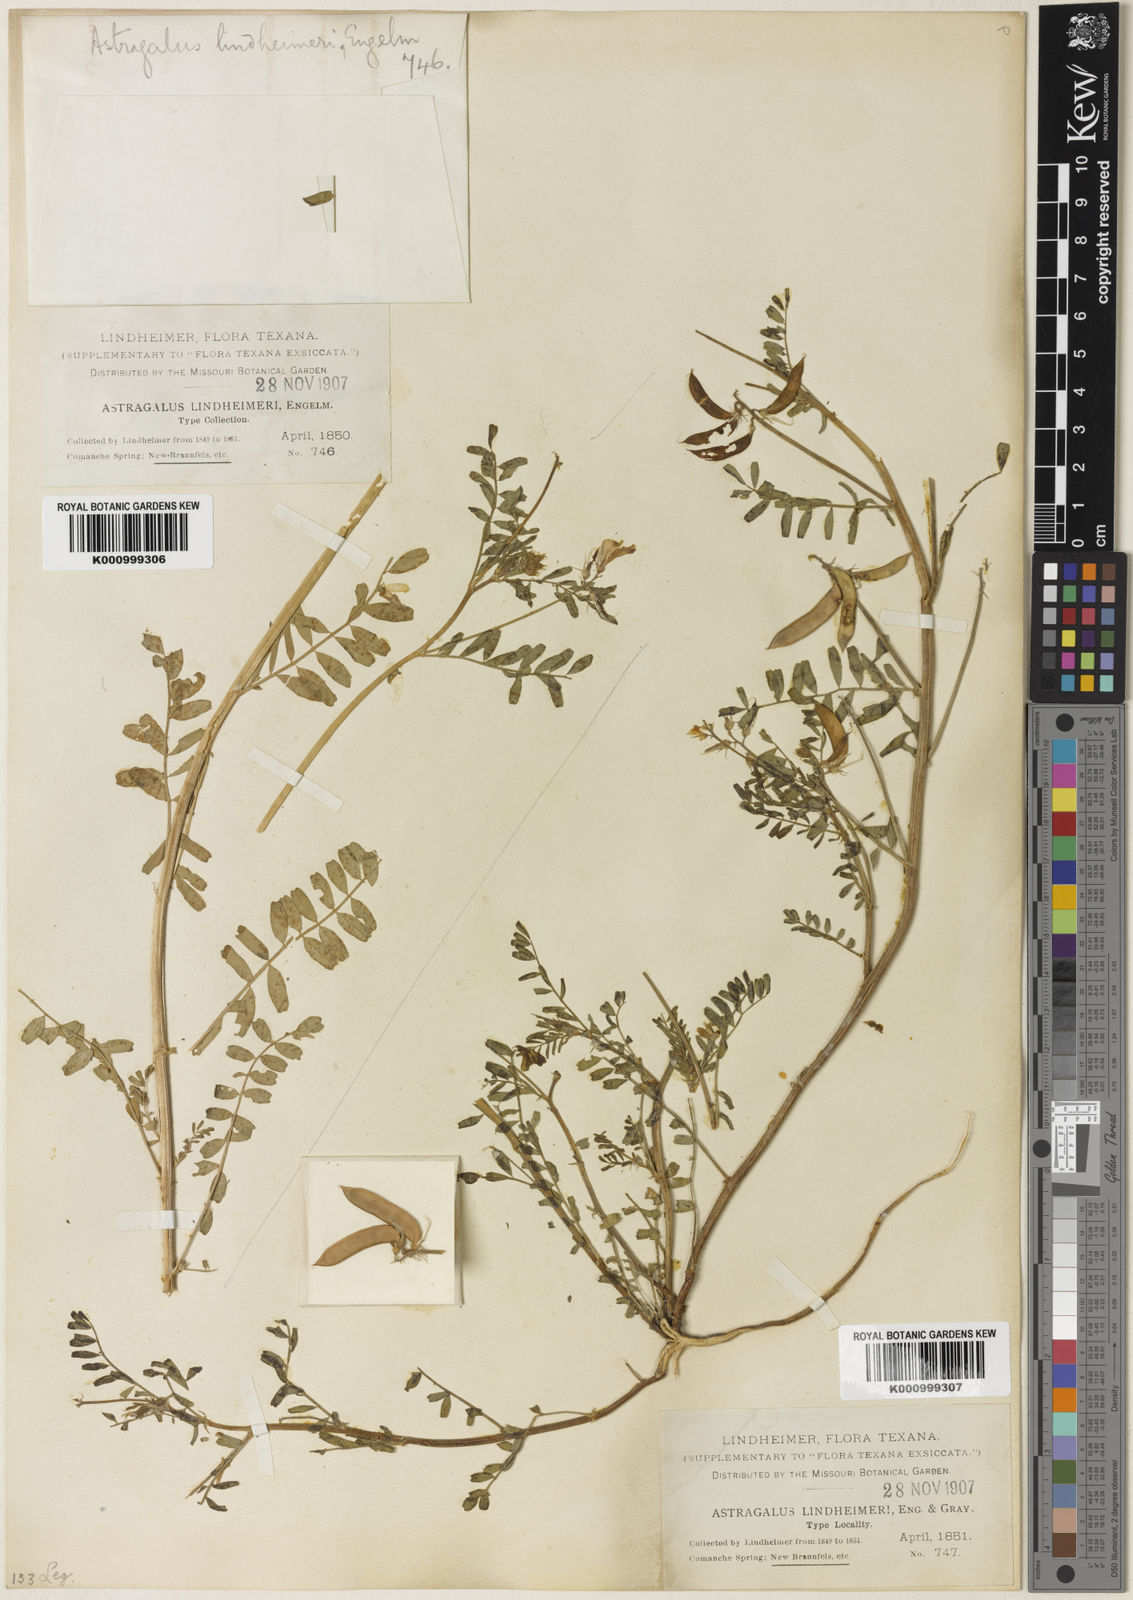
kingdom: Plantae
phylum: Tracheophyta
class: Magnoliopsida
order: Fabales
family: Fabaceae
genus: Astragalus
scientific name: Astragalus
